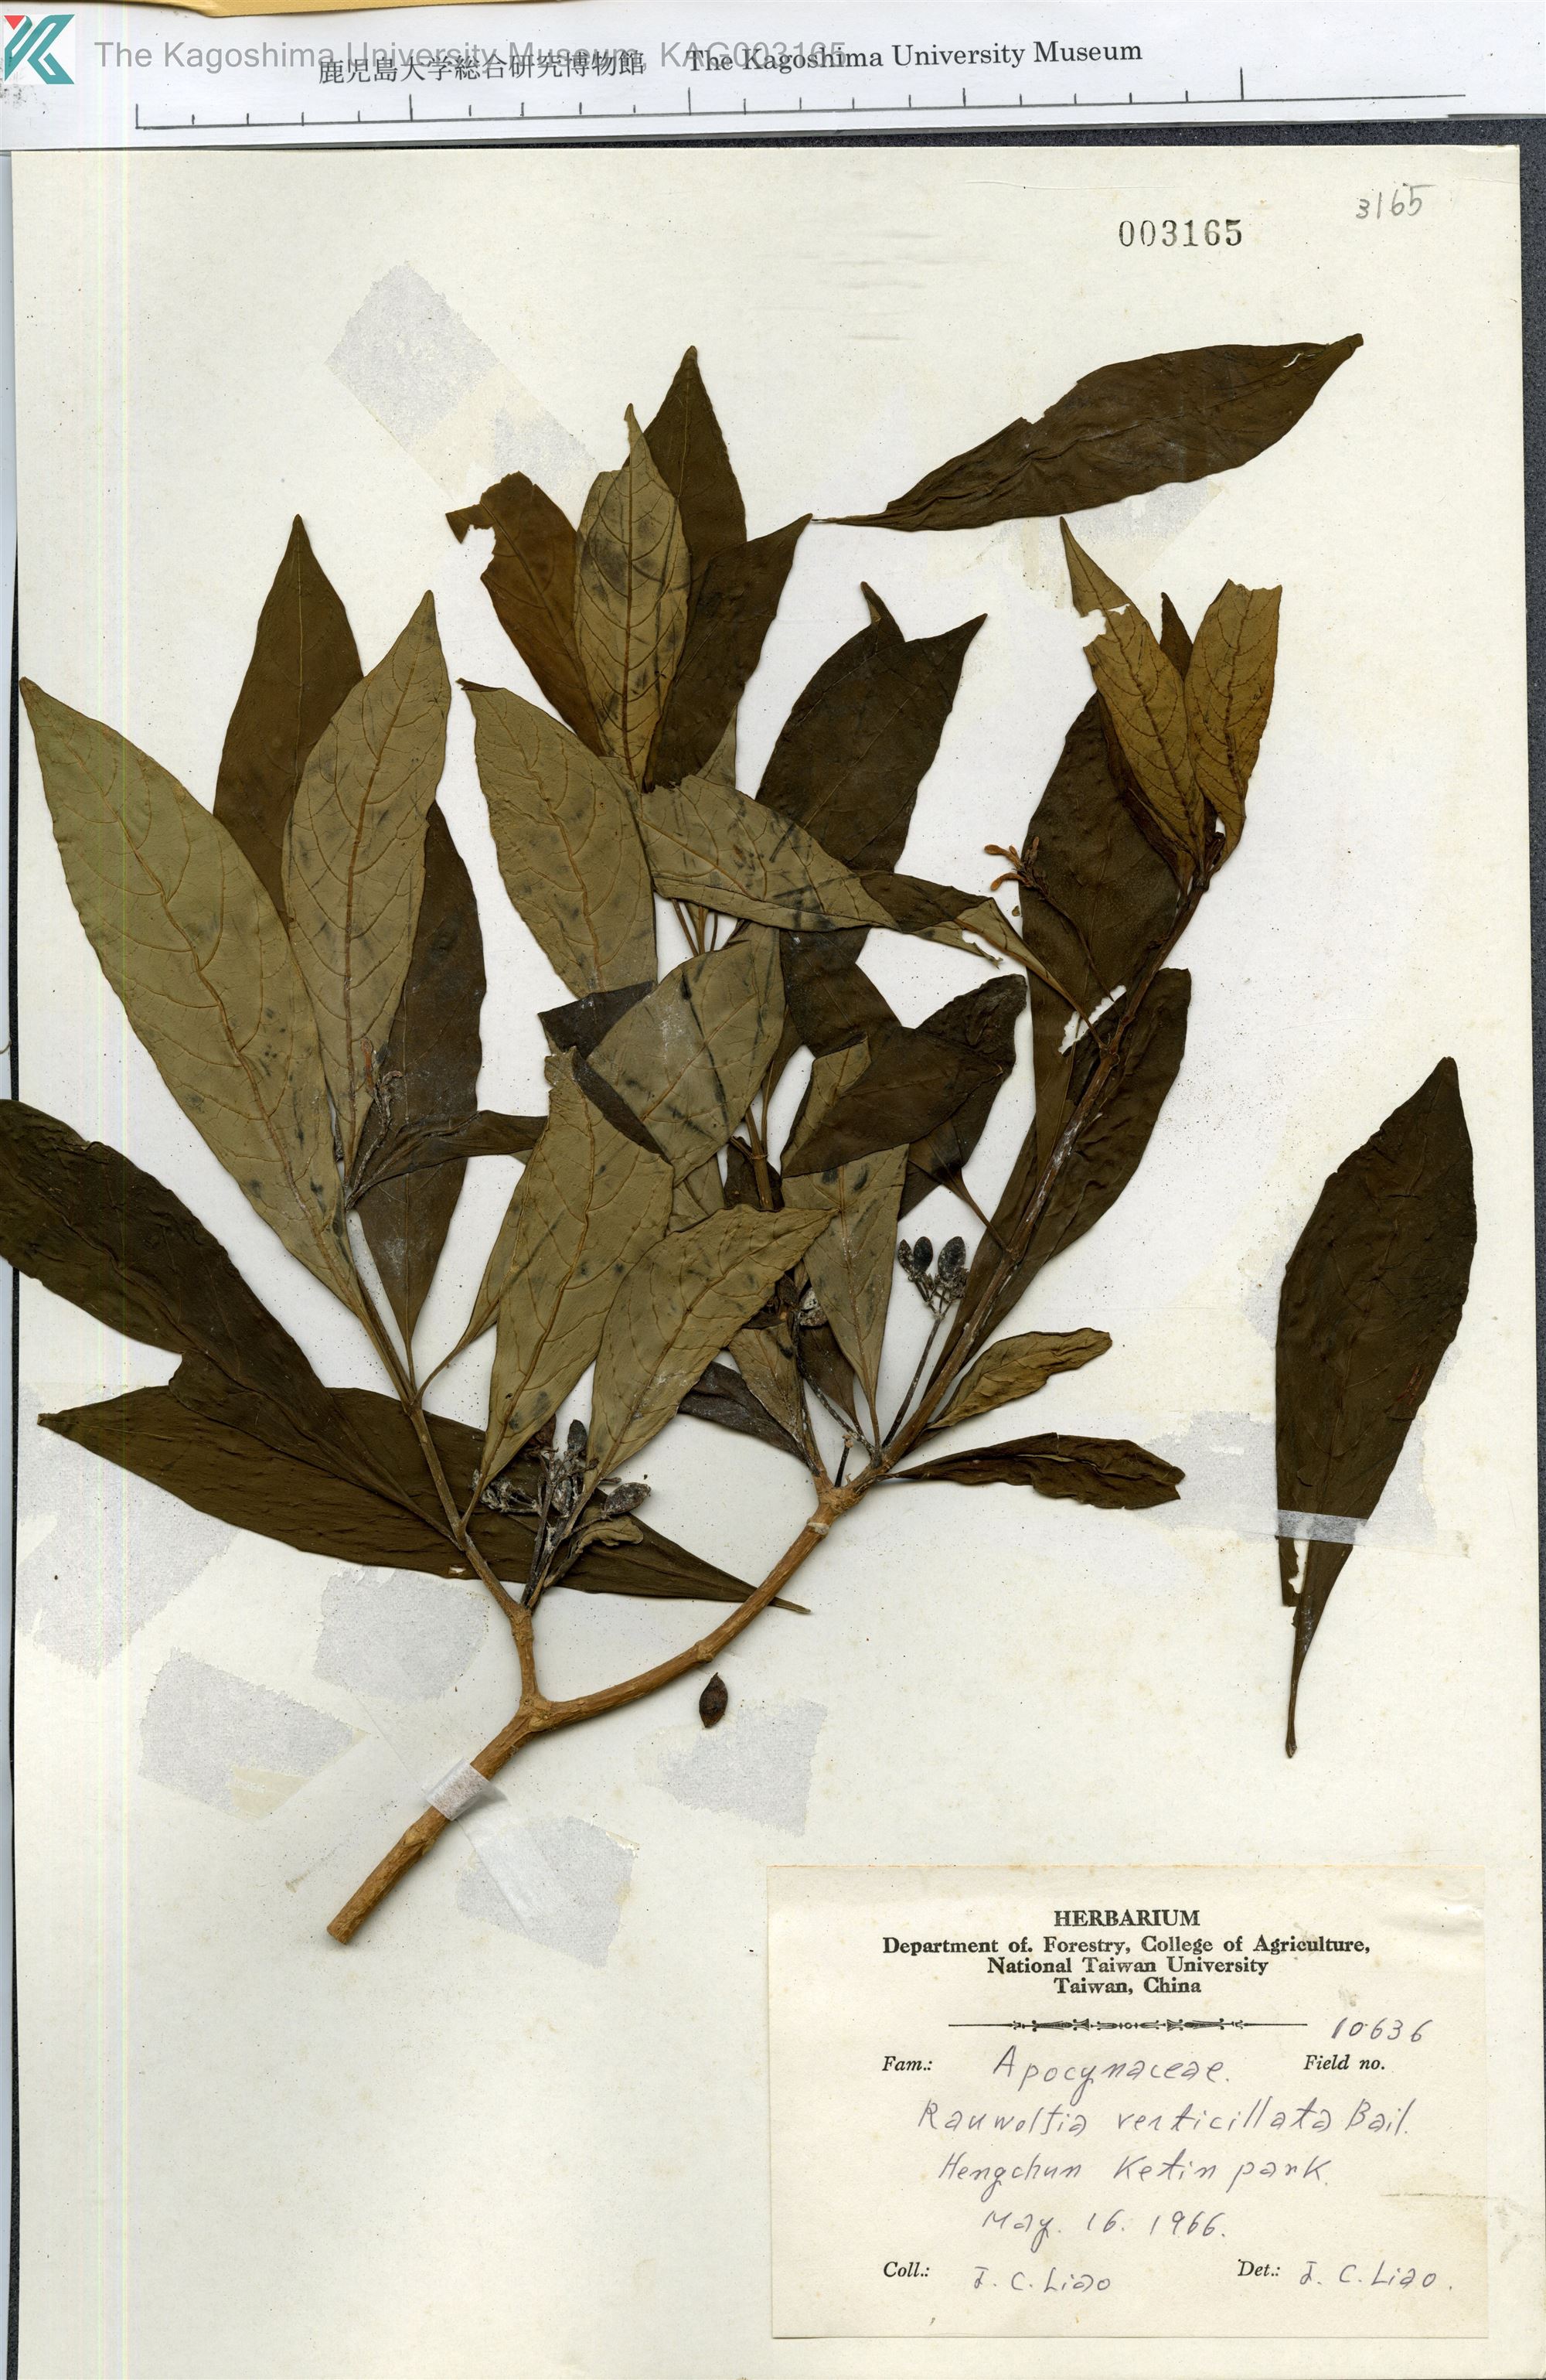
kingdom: Plantae
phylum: Tracheophyta
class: Magnoliopsida
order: Gentianales
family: Apocynaceae
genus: Rauvolfia
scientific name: Rauvolfia verticillata
